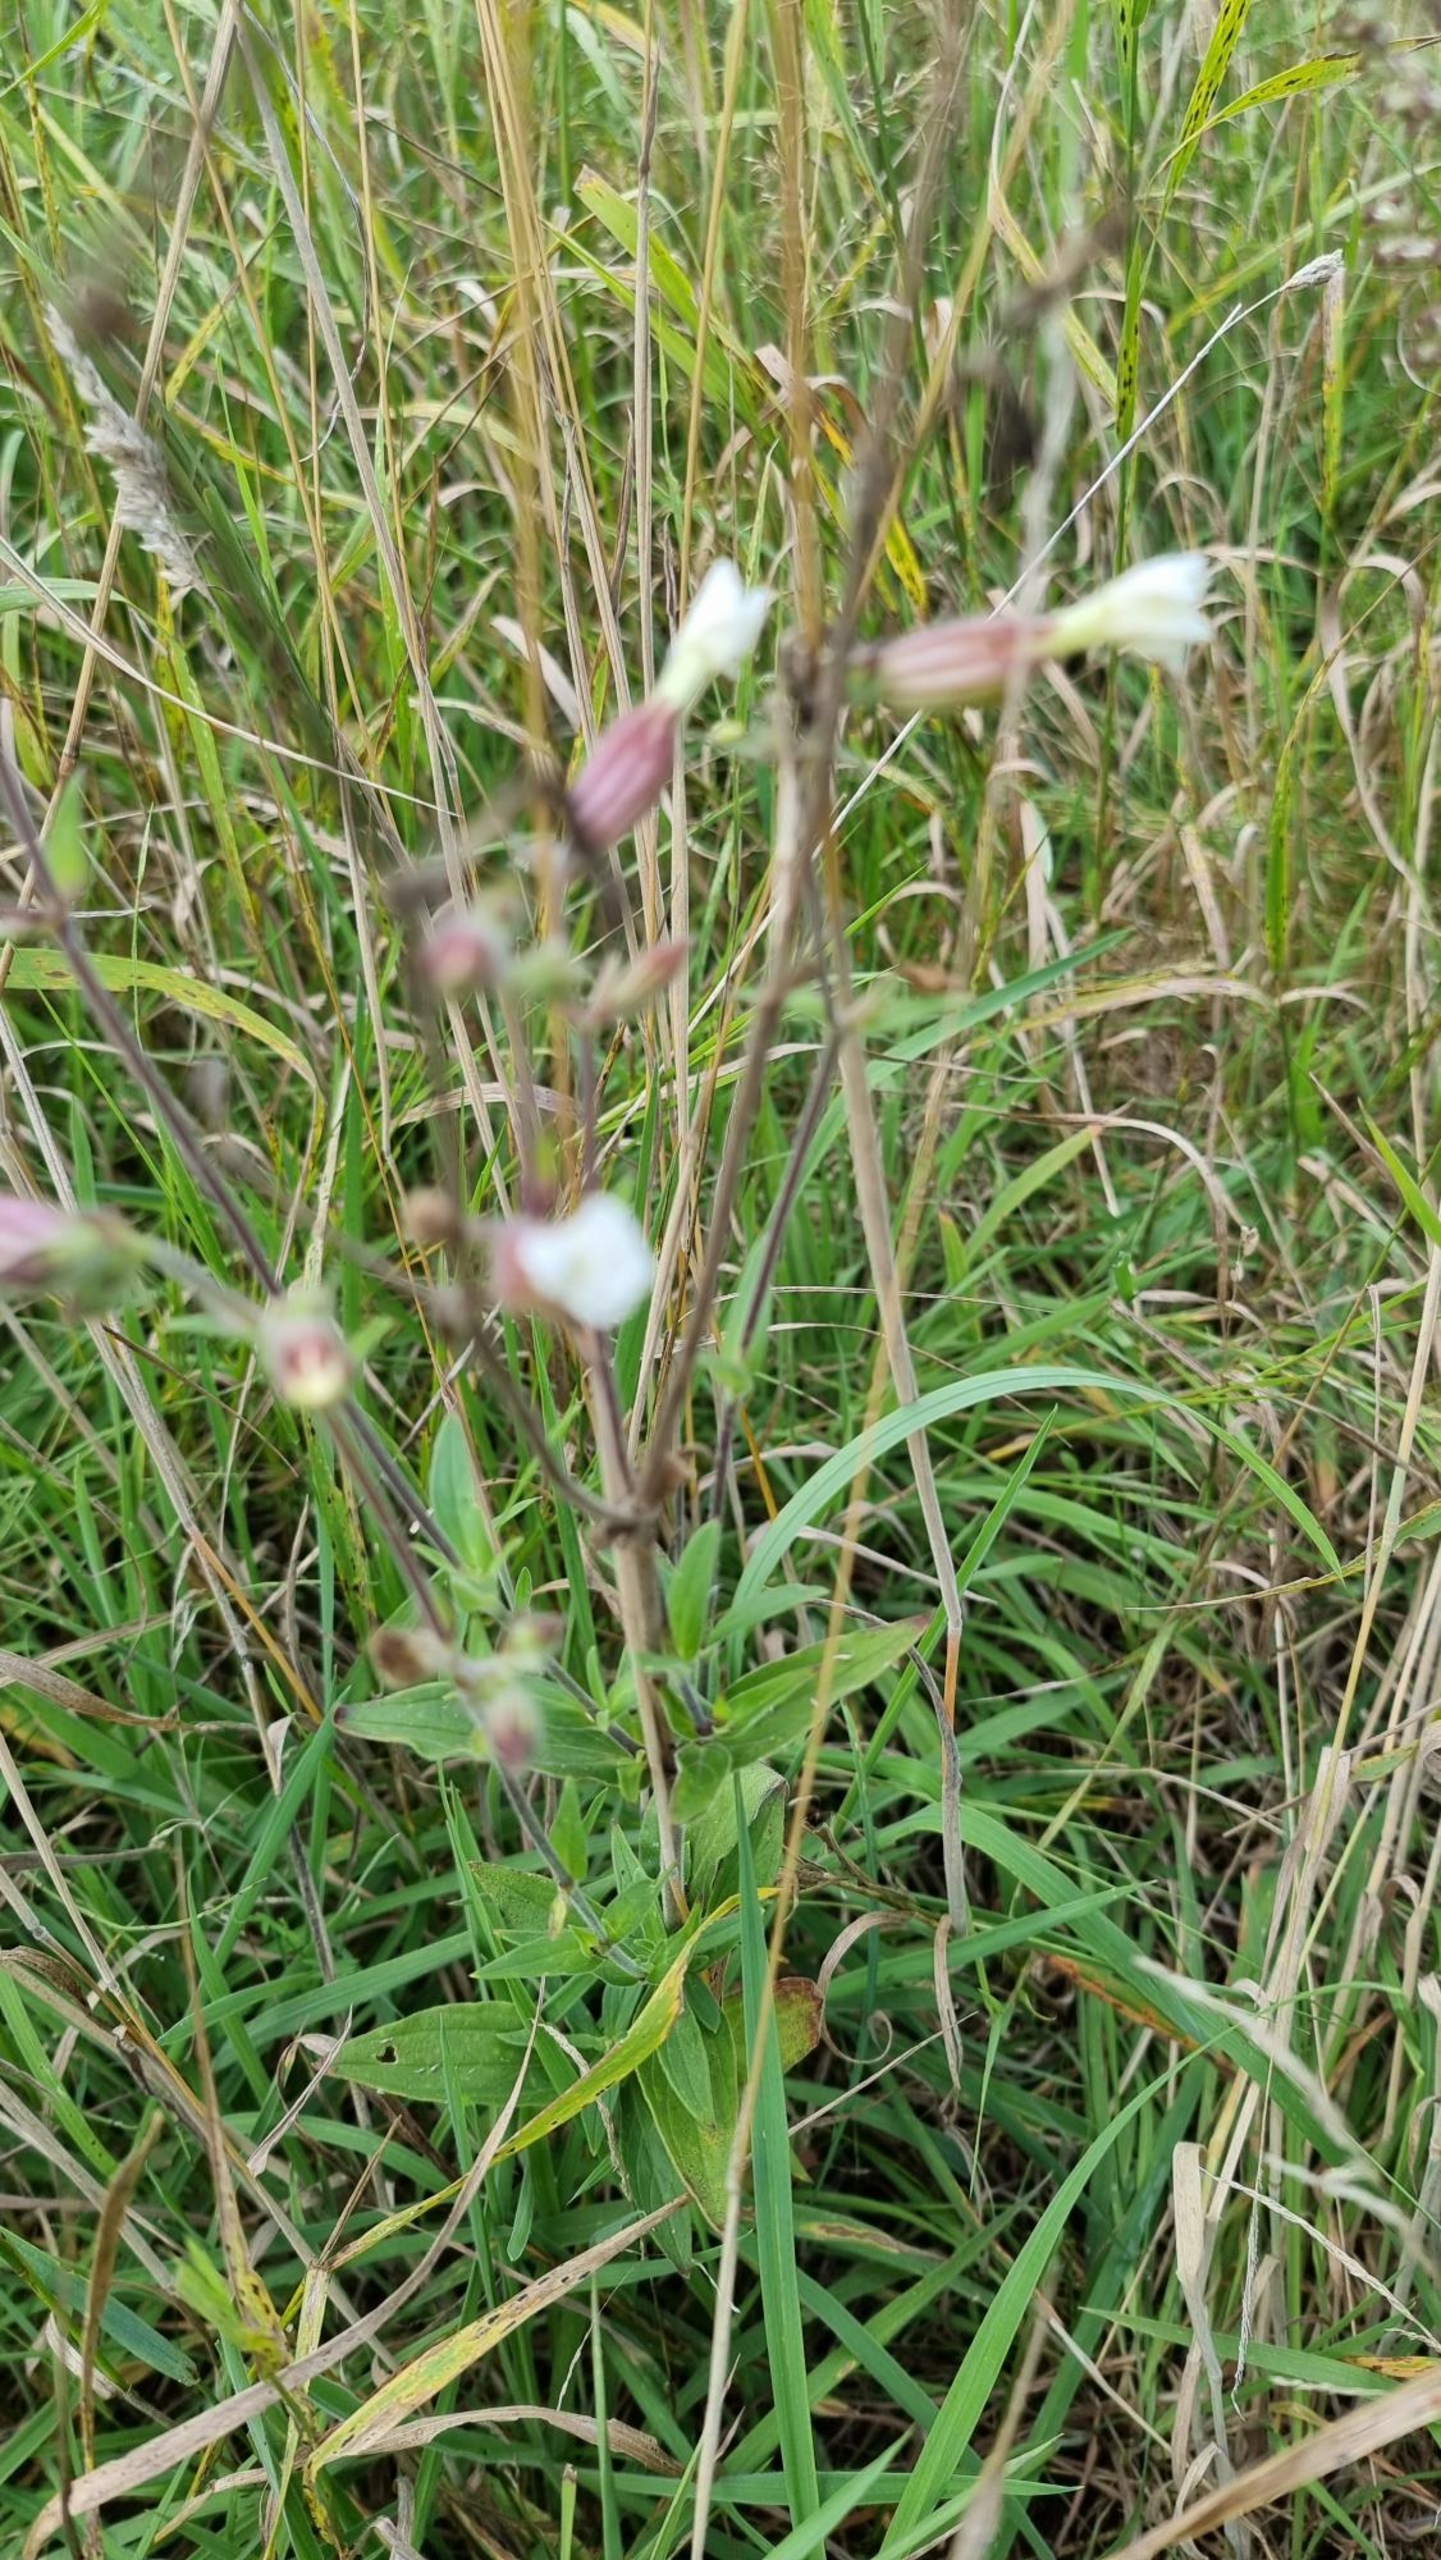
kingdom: Plantae
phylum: Tracheophyta
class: Magnoliopsida
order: Caryophyllales
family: Caryophyllaceae
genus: Silene
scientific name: Silene latifolia
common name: Aftenpragtstjerne
